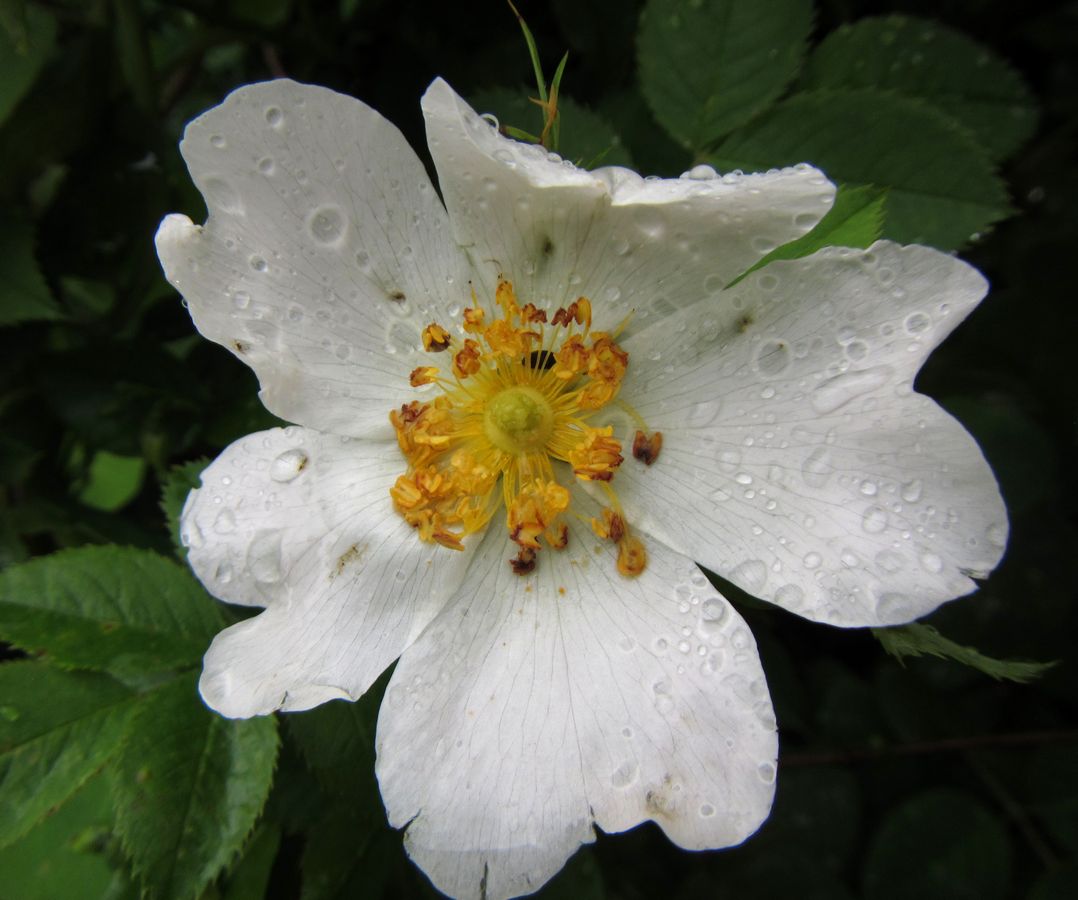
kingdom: Plantae
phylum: Tracheophyta
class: Magnoliopsida
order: Rosales
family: Rosaceae
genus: Rosa
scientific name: Rosa
